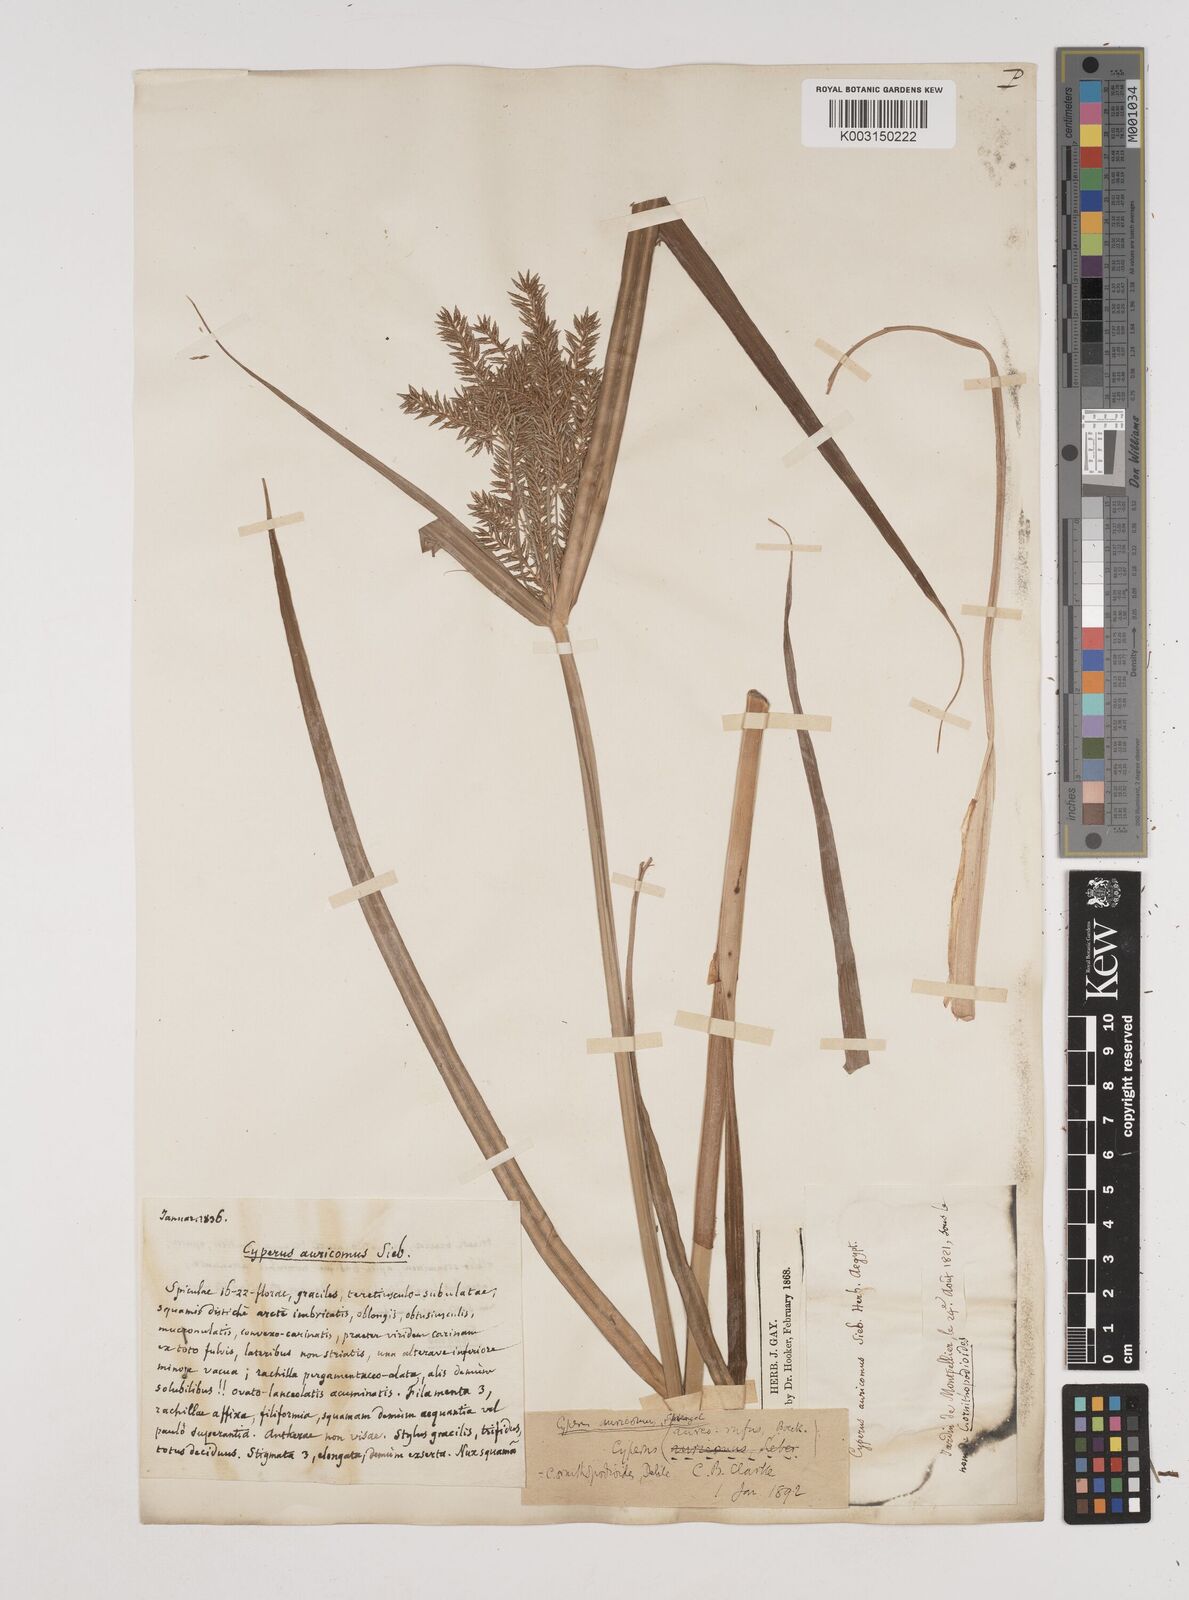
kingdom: Plantae
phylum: Tracheophyta
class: Liliopsida
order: Poales
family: Cyperaceae
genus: Cyperus
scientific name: Cyperus penzoanus
